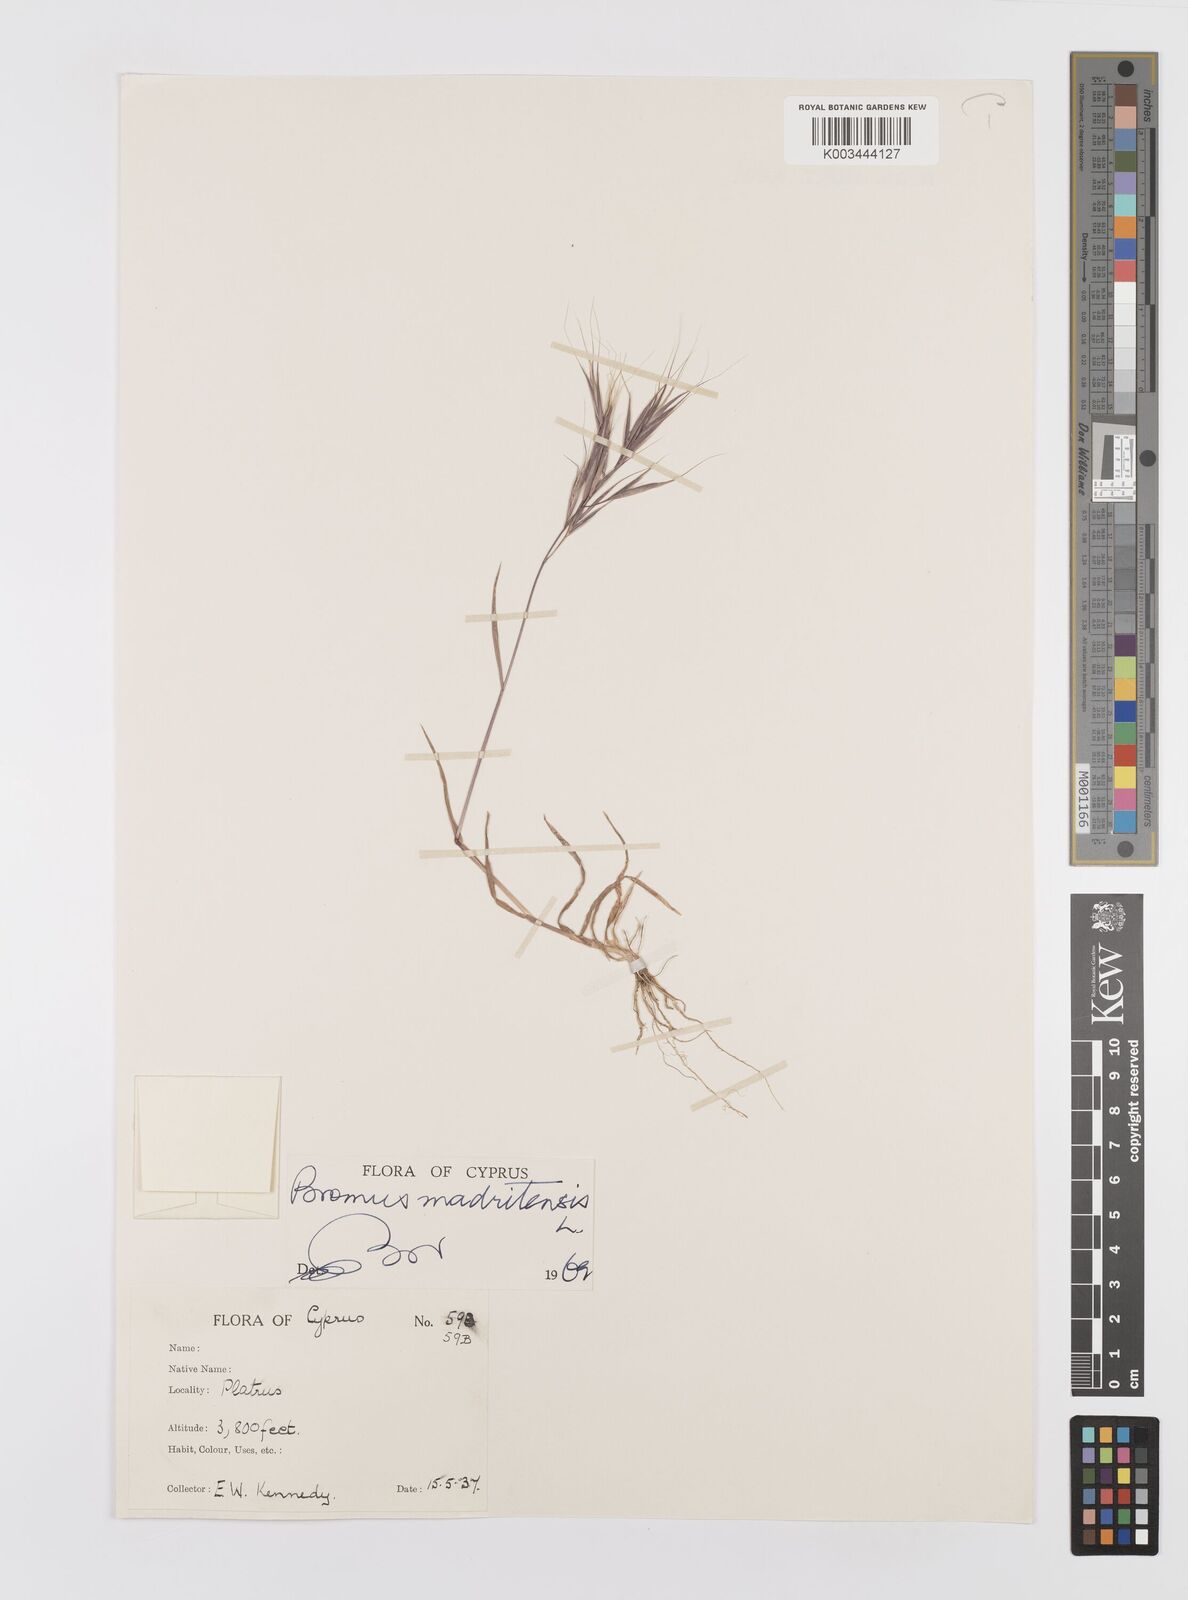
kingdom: Plantae
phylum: Tracheophyta
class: Liliopsida
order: Poales
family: Poaceae
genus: Bromus
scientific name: Bromus madritensis
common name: Compact brome
